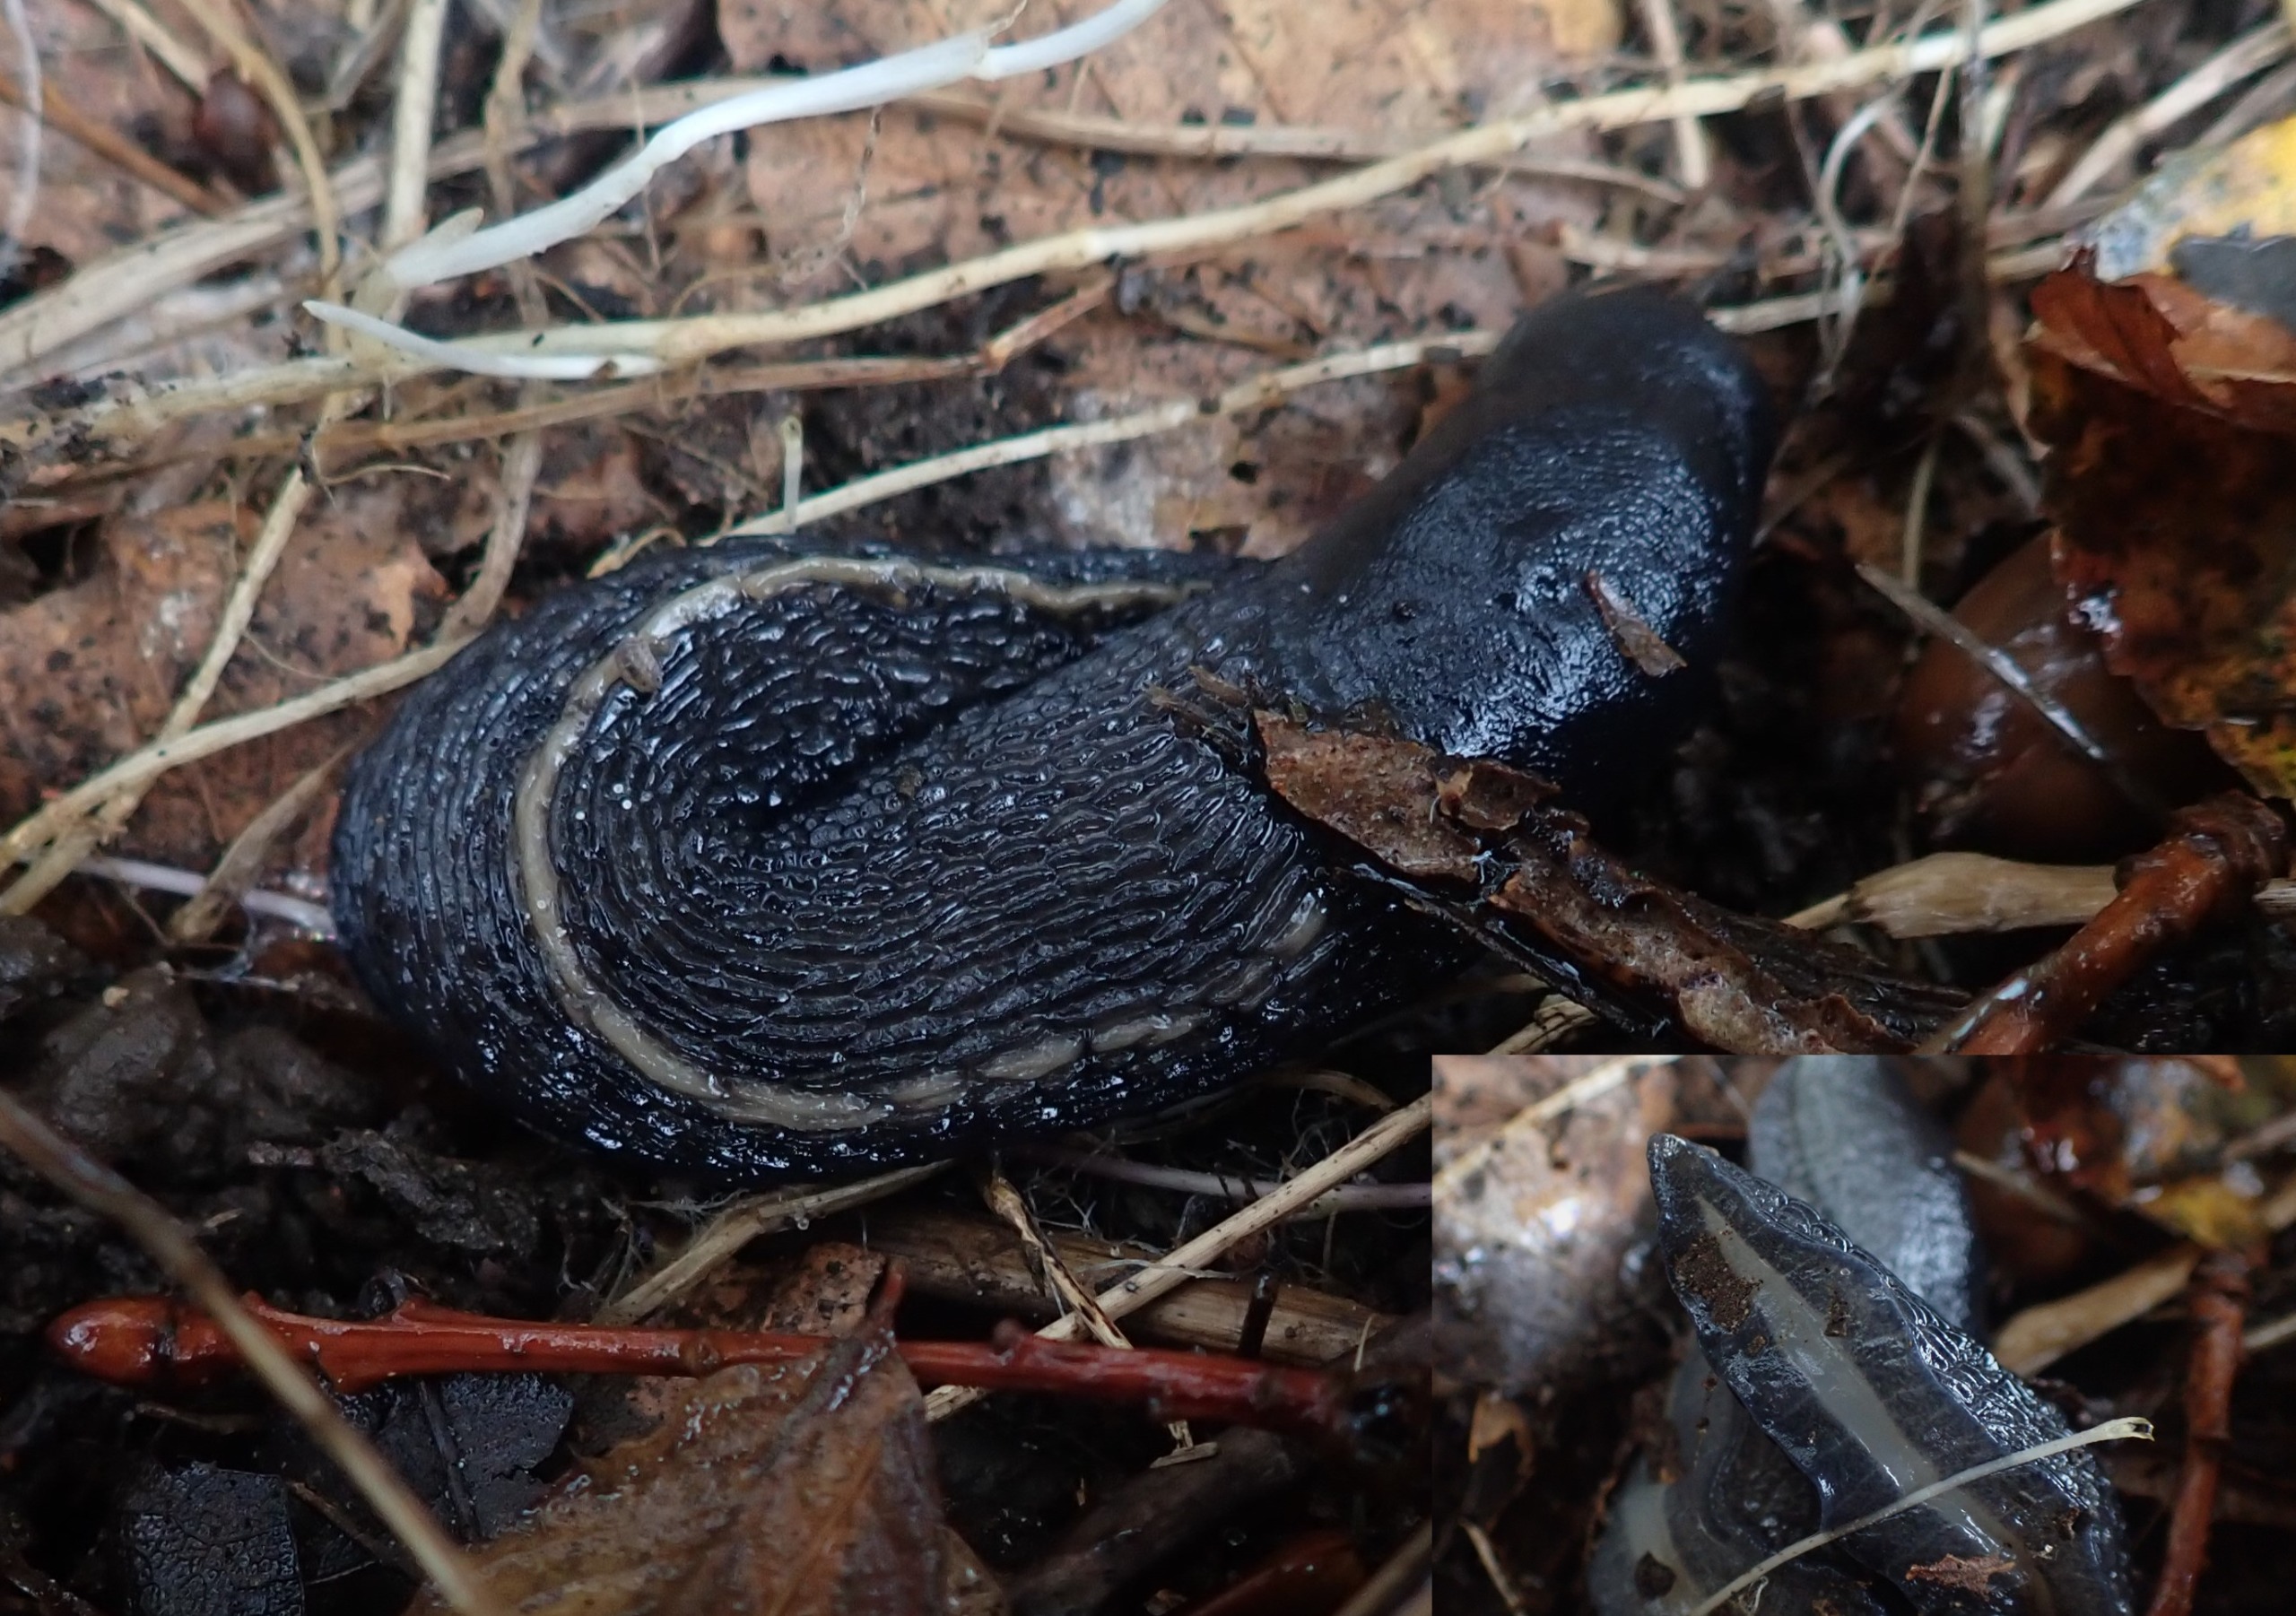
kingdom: Animalia
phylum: Mollusca
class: Gastropoda
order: Stylommatophora
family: Limacidae
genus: Limax
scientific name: Limax cinereoniger
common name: Skovpantersnegl
